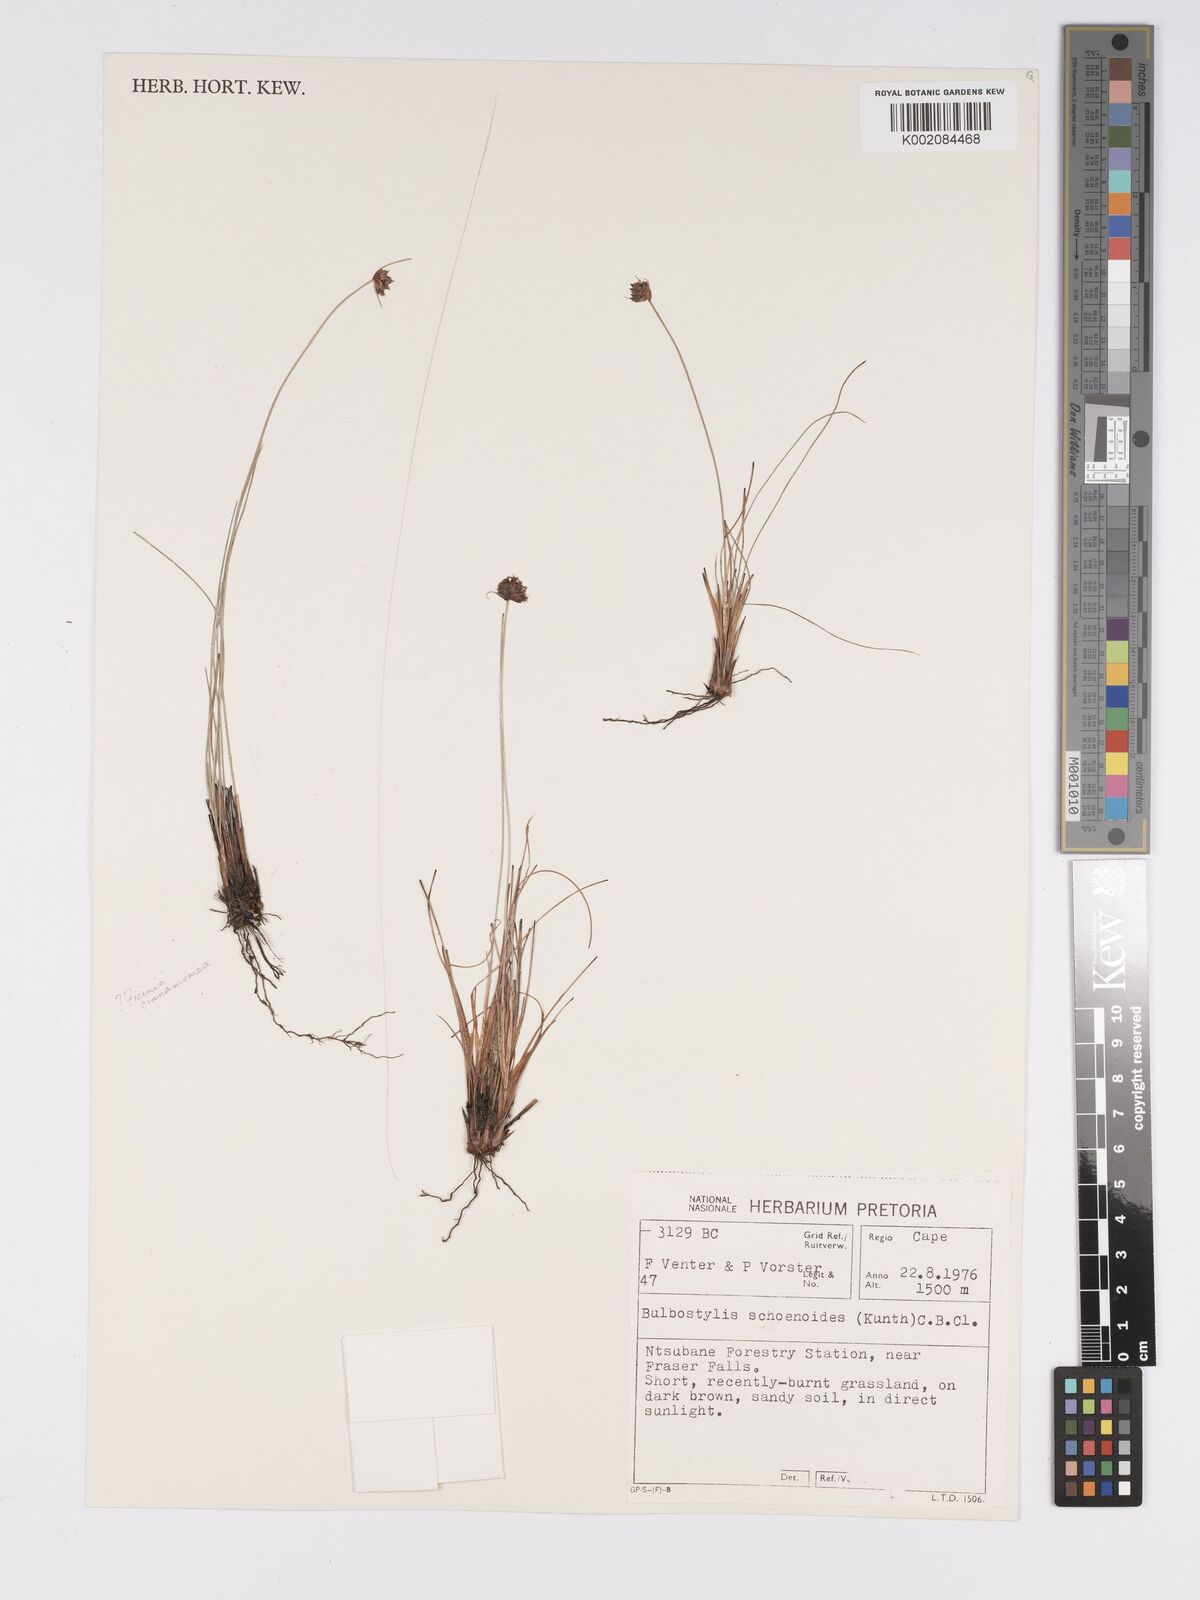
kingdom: Plantae
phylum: Tracheophyta
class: Liliopsida
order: Poales
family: Cyperaceae
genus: Bulbostylis
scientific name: Bulbostylis schoenoides
